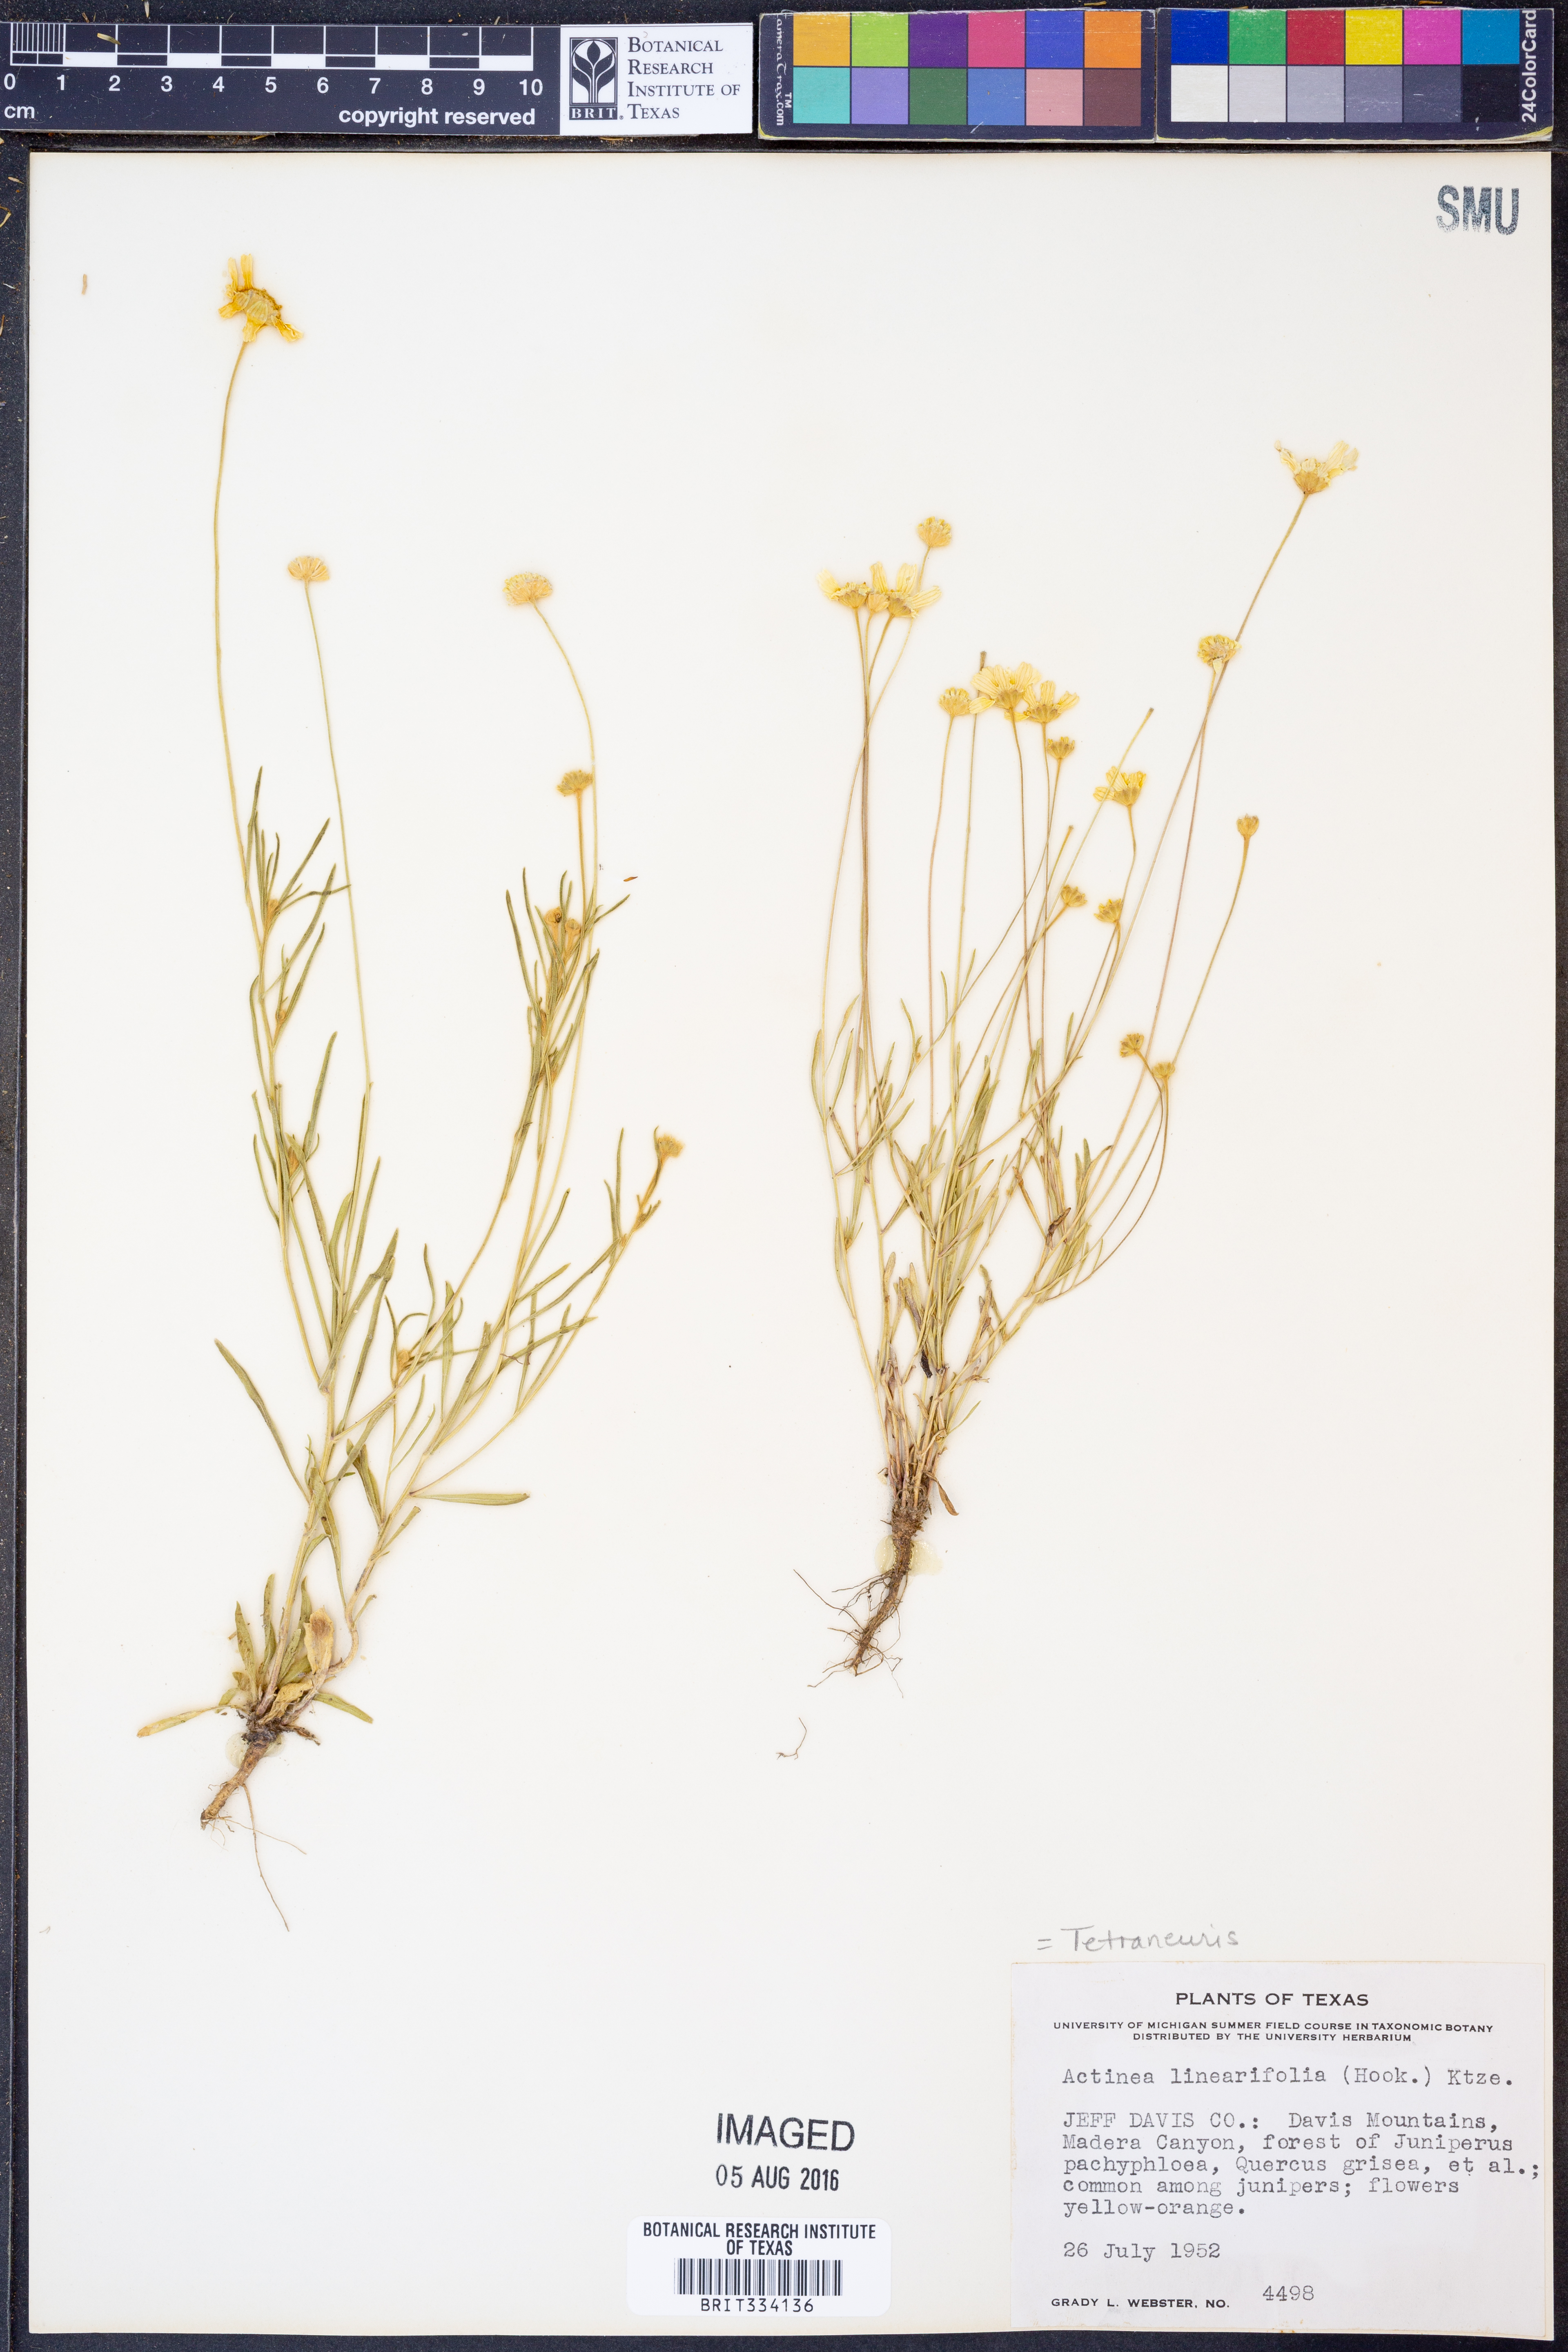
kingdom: Plantae
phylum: Tracheophyta
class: Magnoliopsida
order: Asterales
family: Asteraceae
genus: Tetraneuris
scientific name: Tetraneuris linearifolia
